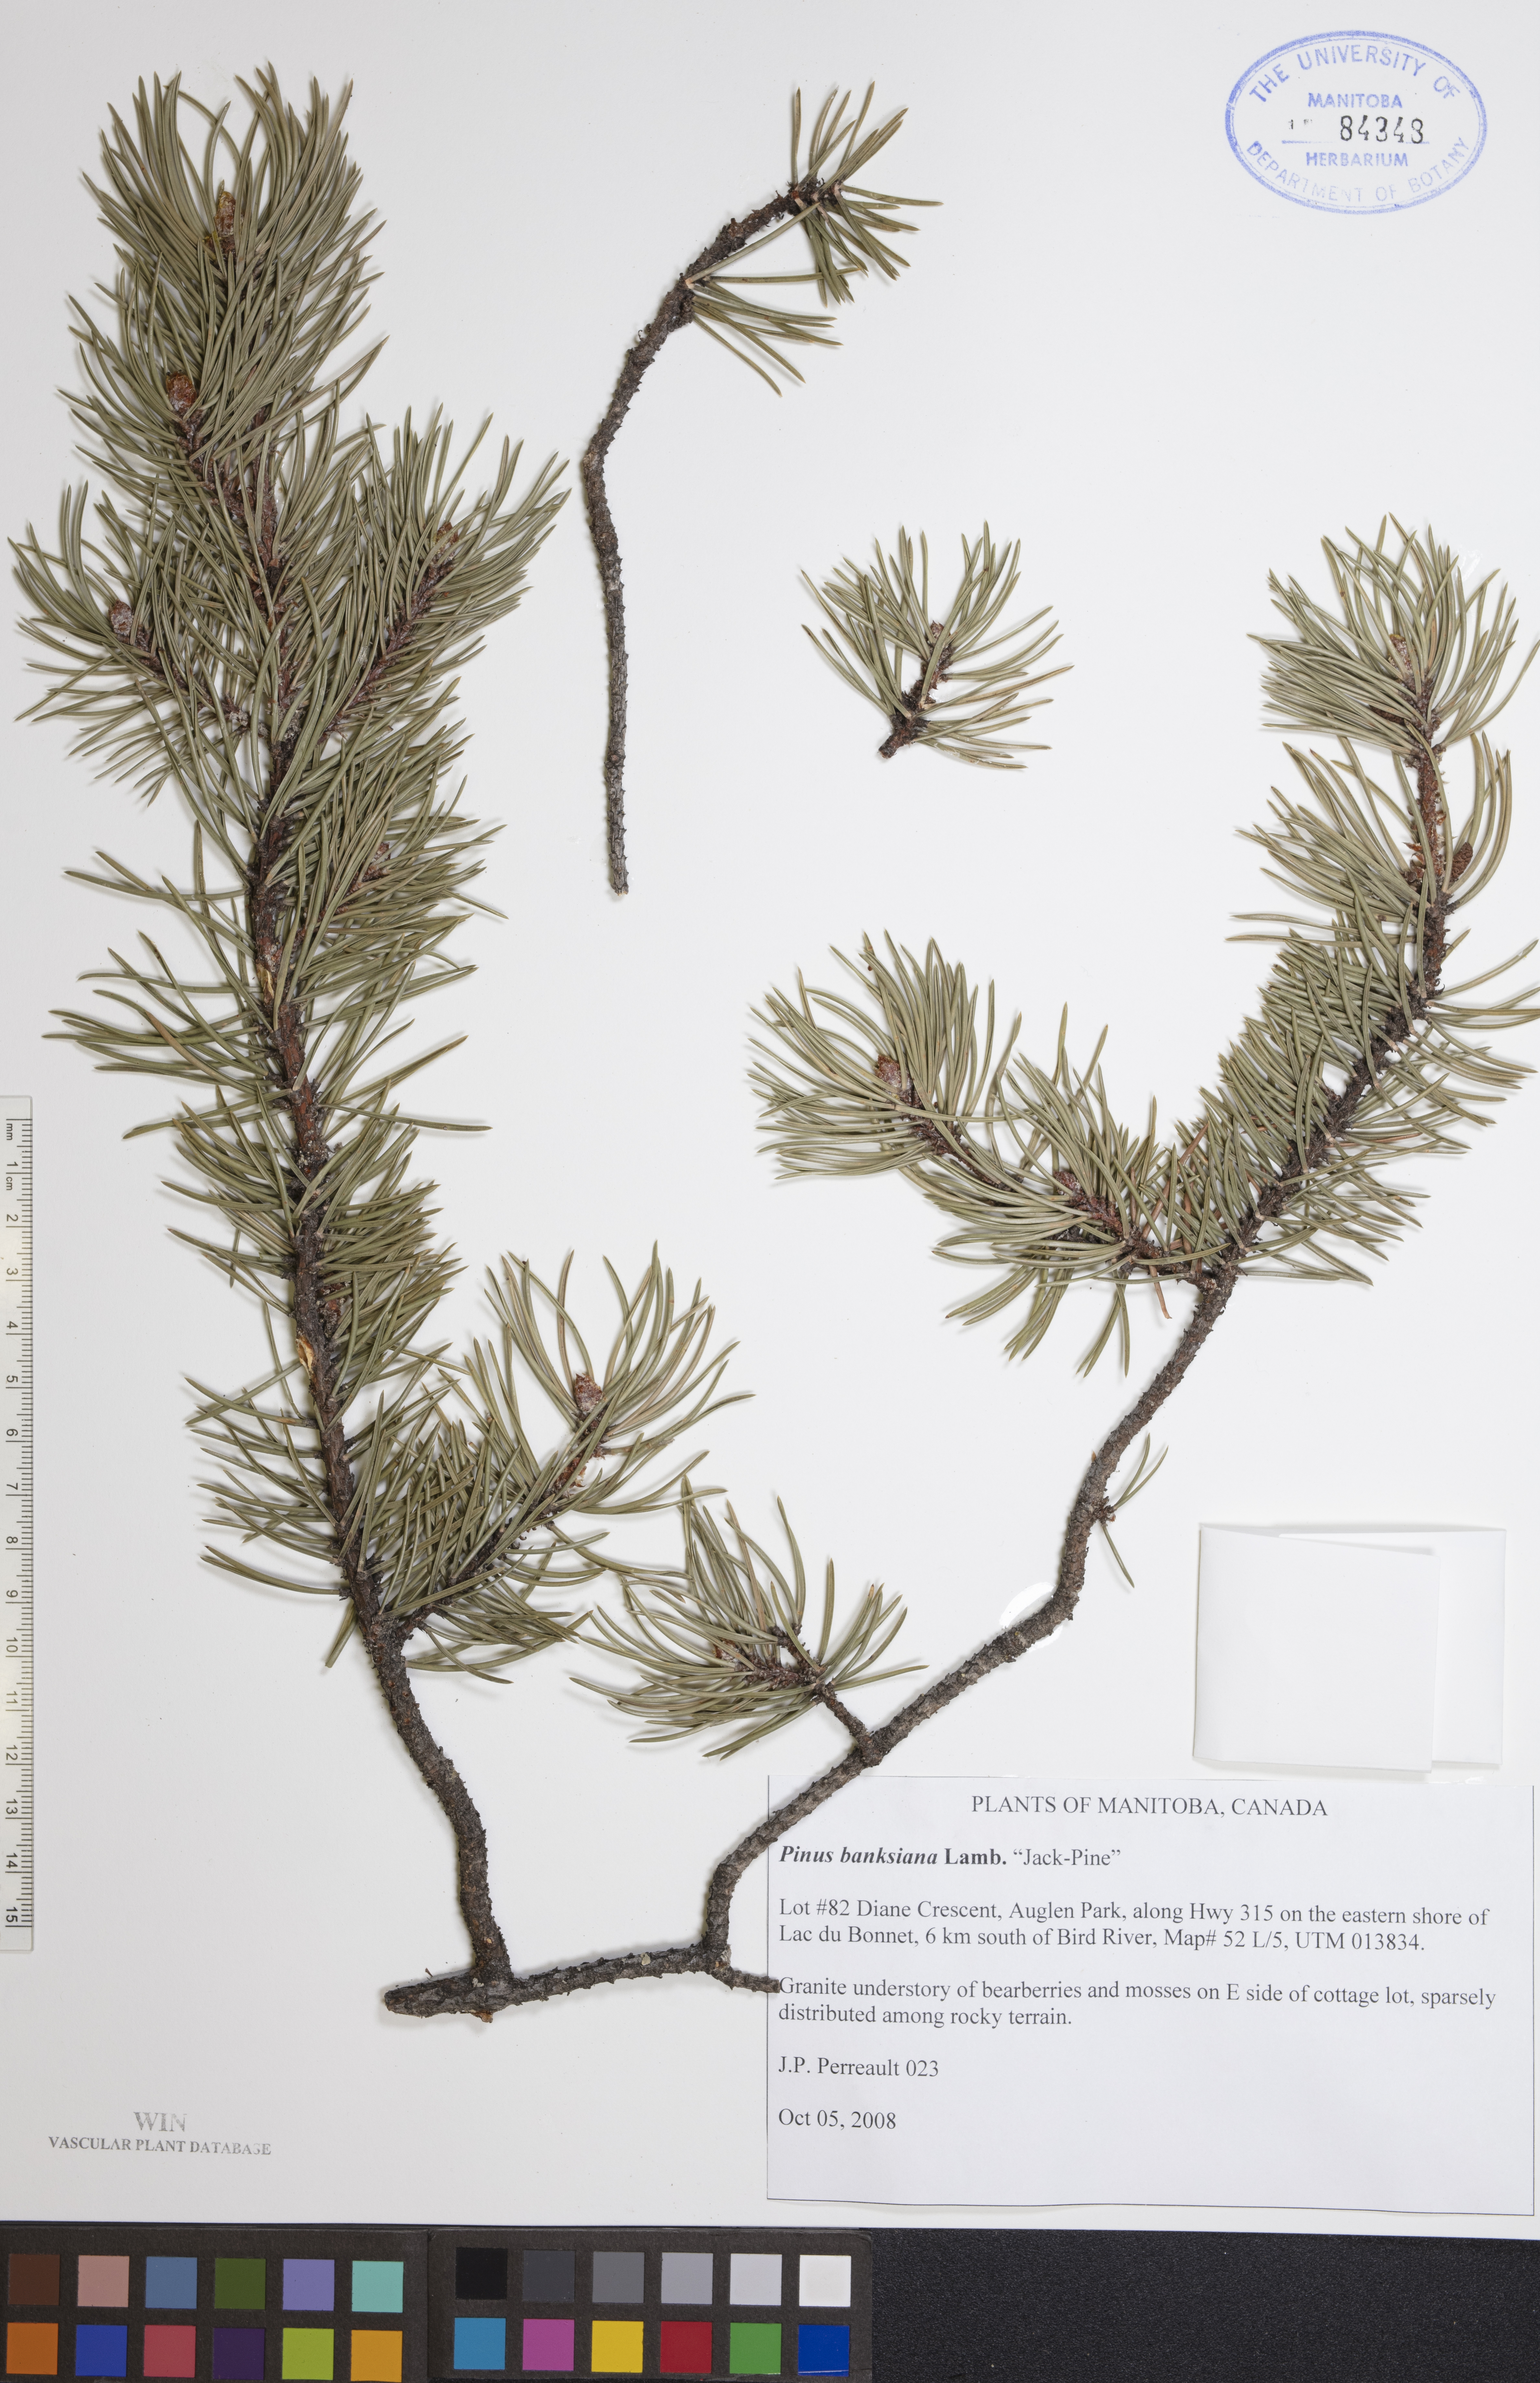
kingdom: Plantae
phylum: Tracheophyta
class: Pinopsida
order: Pinales
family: Pinaceae
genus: Pinus
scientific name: Pinus banksiana
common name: Jack pine
